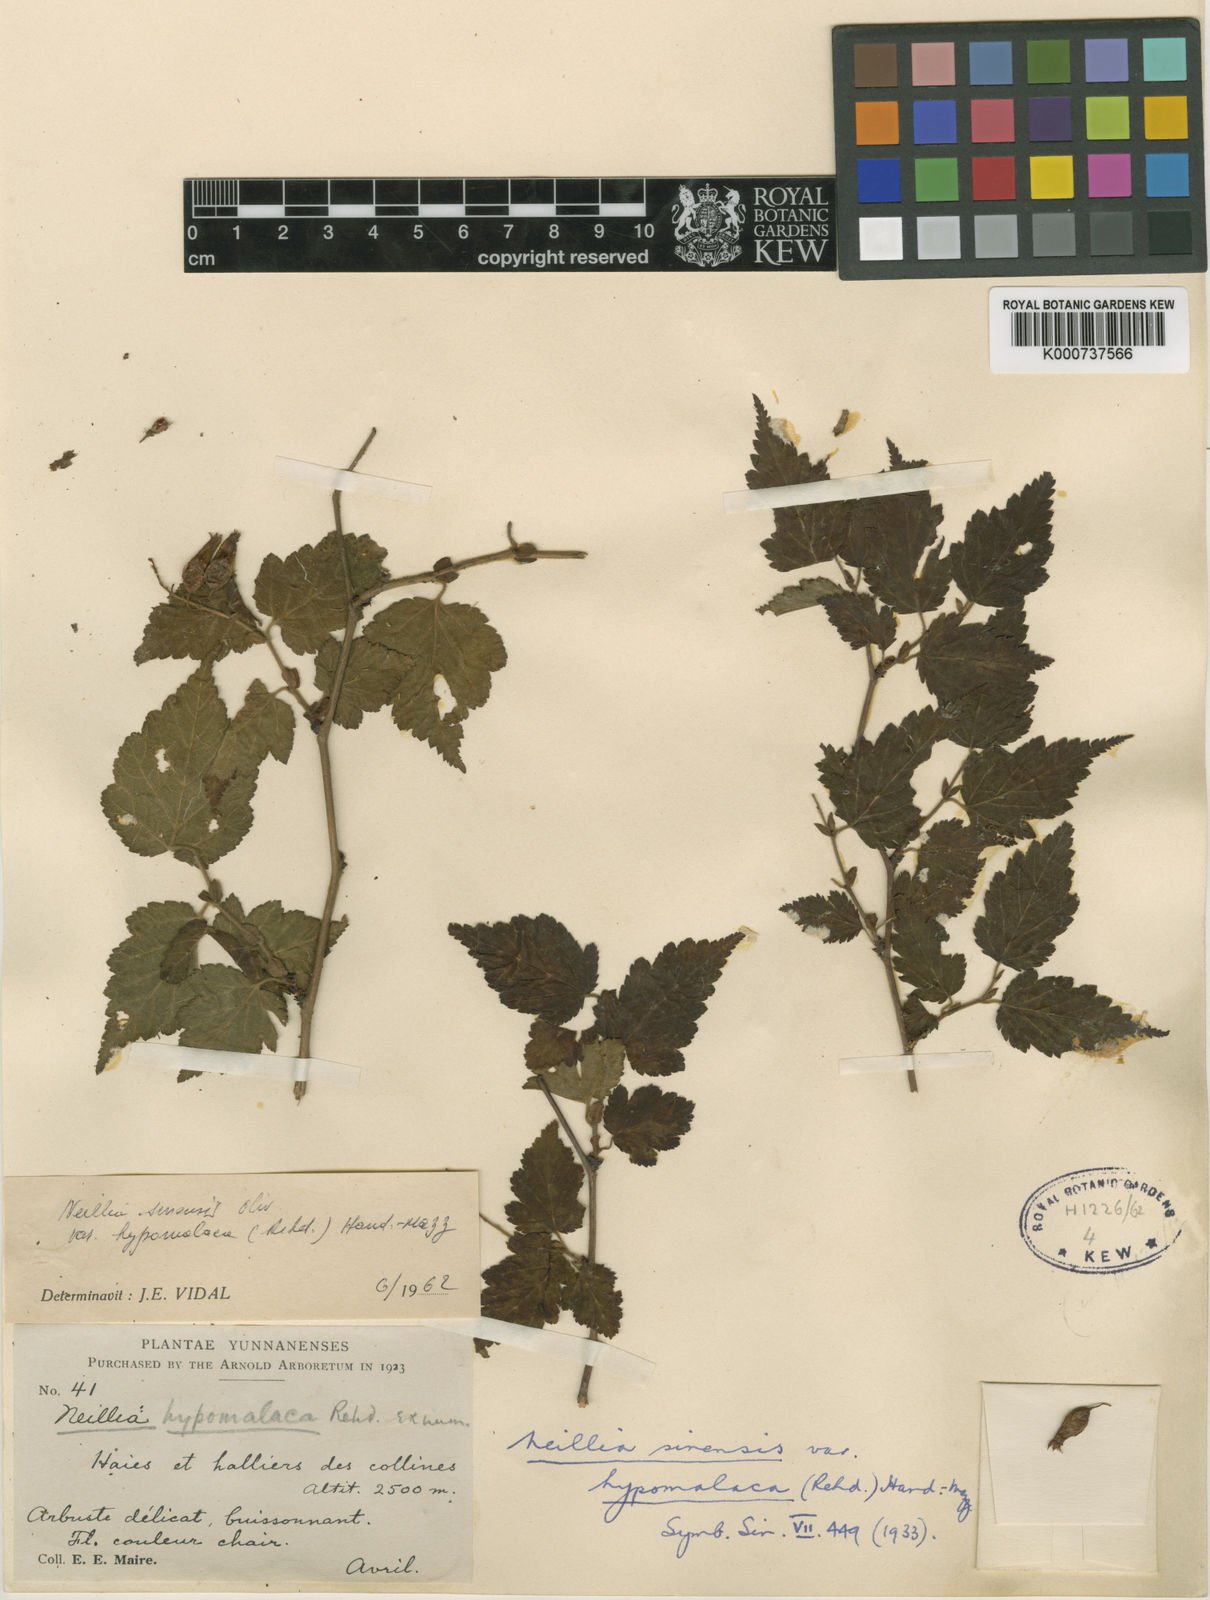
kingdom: Plantae
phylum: Tracheophyta
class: Magnoliopsida
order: Rosales
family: Rosaceae
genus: Neillia
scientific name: Neillia sinensis
